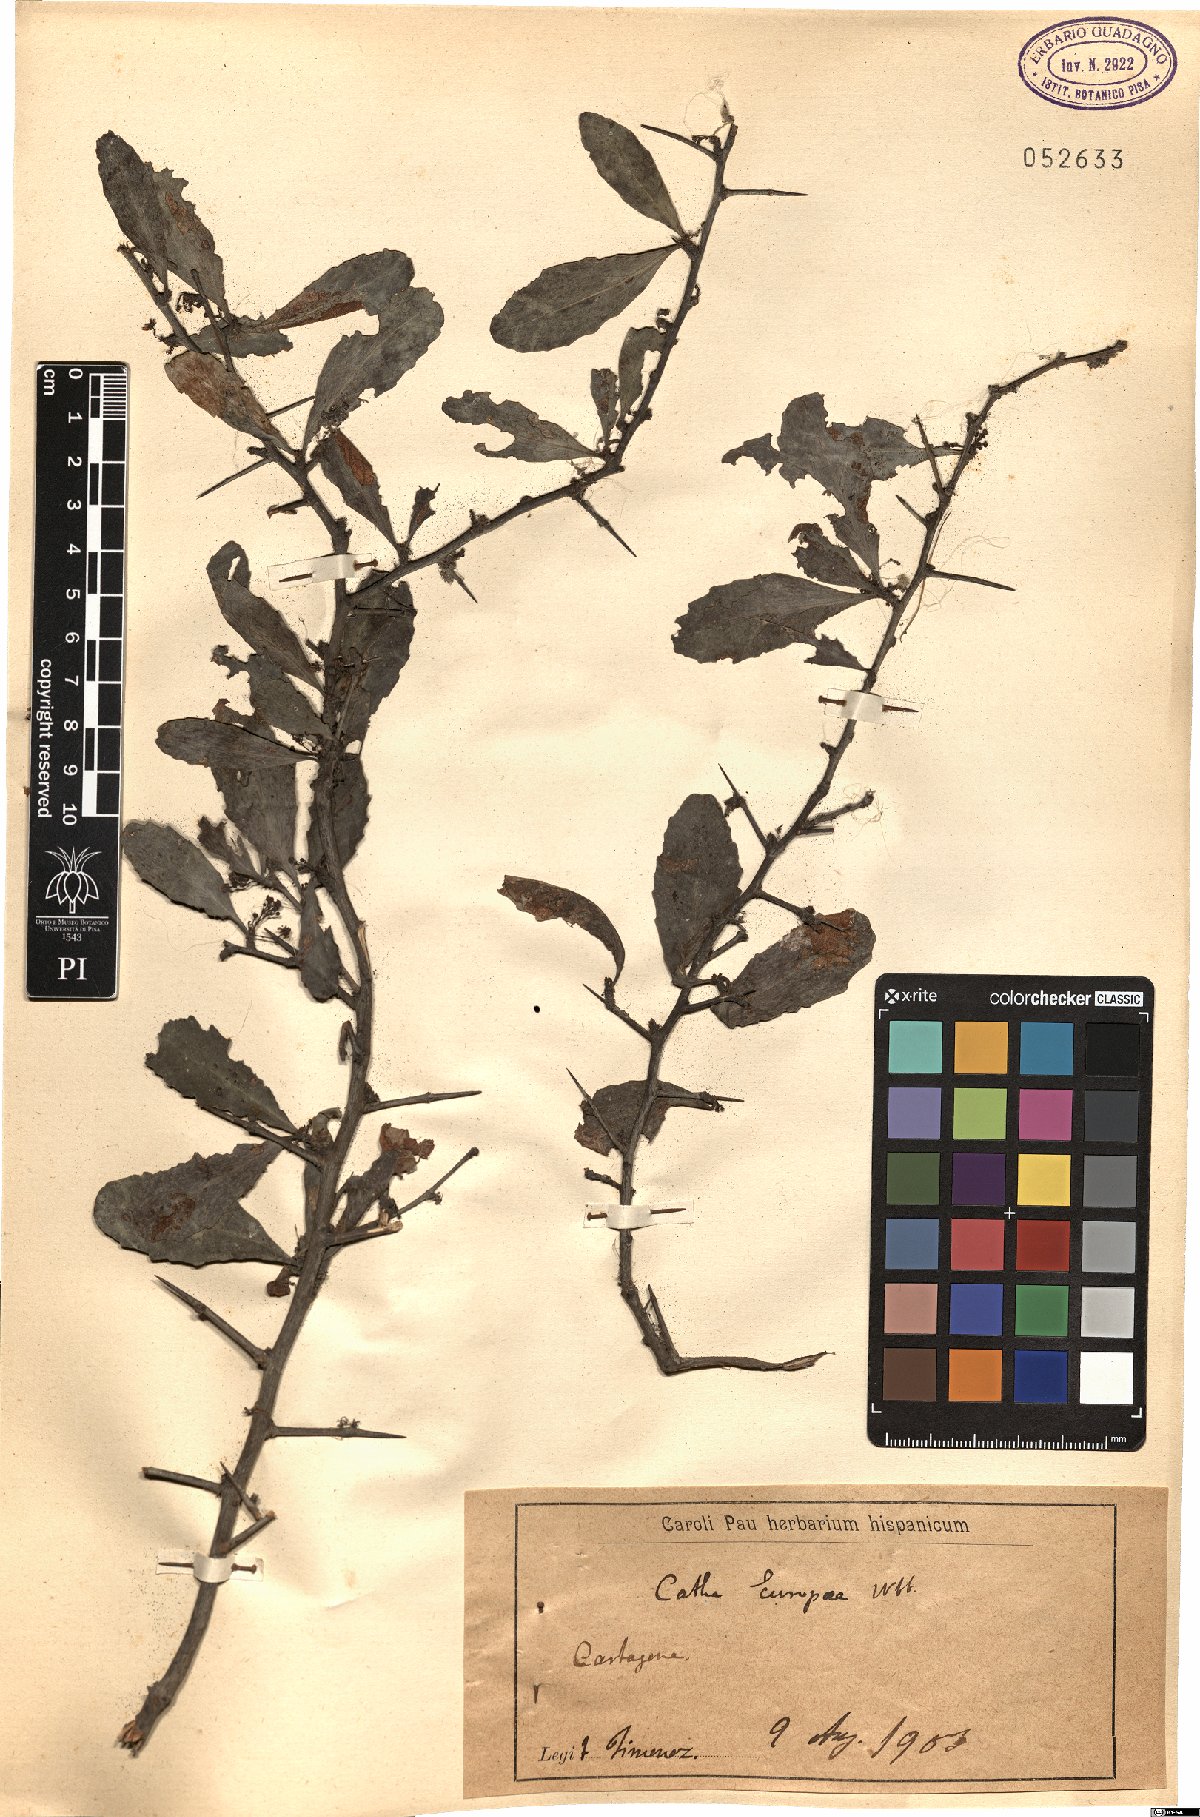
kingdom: Plantae
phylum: Tracheophyta
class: Magnoliopsida
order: Celastrales
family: Celastraceae
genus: Gymnosporia
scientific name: Gymnosporia senegalensis
